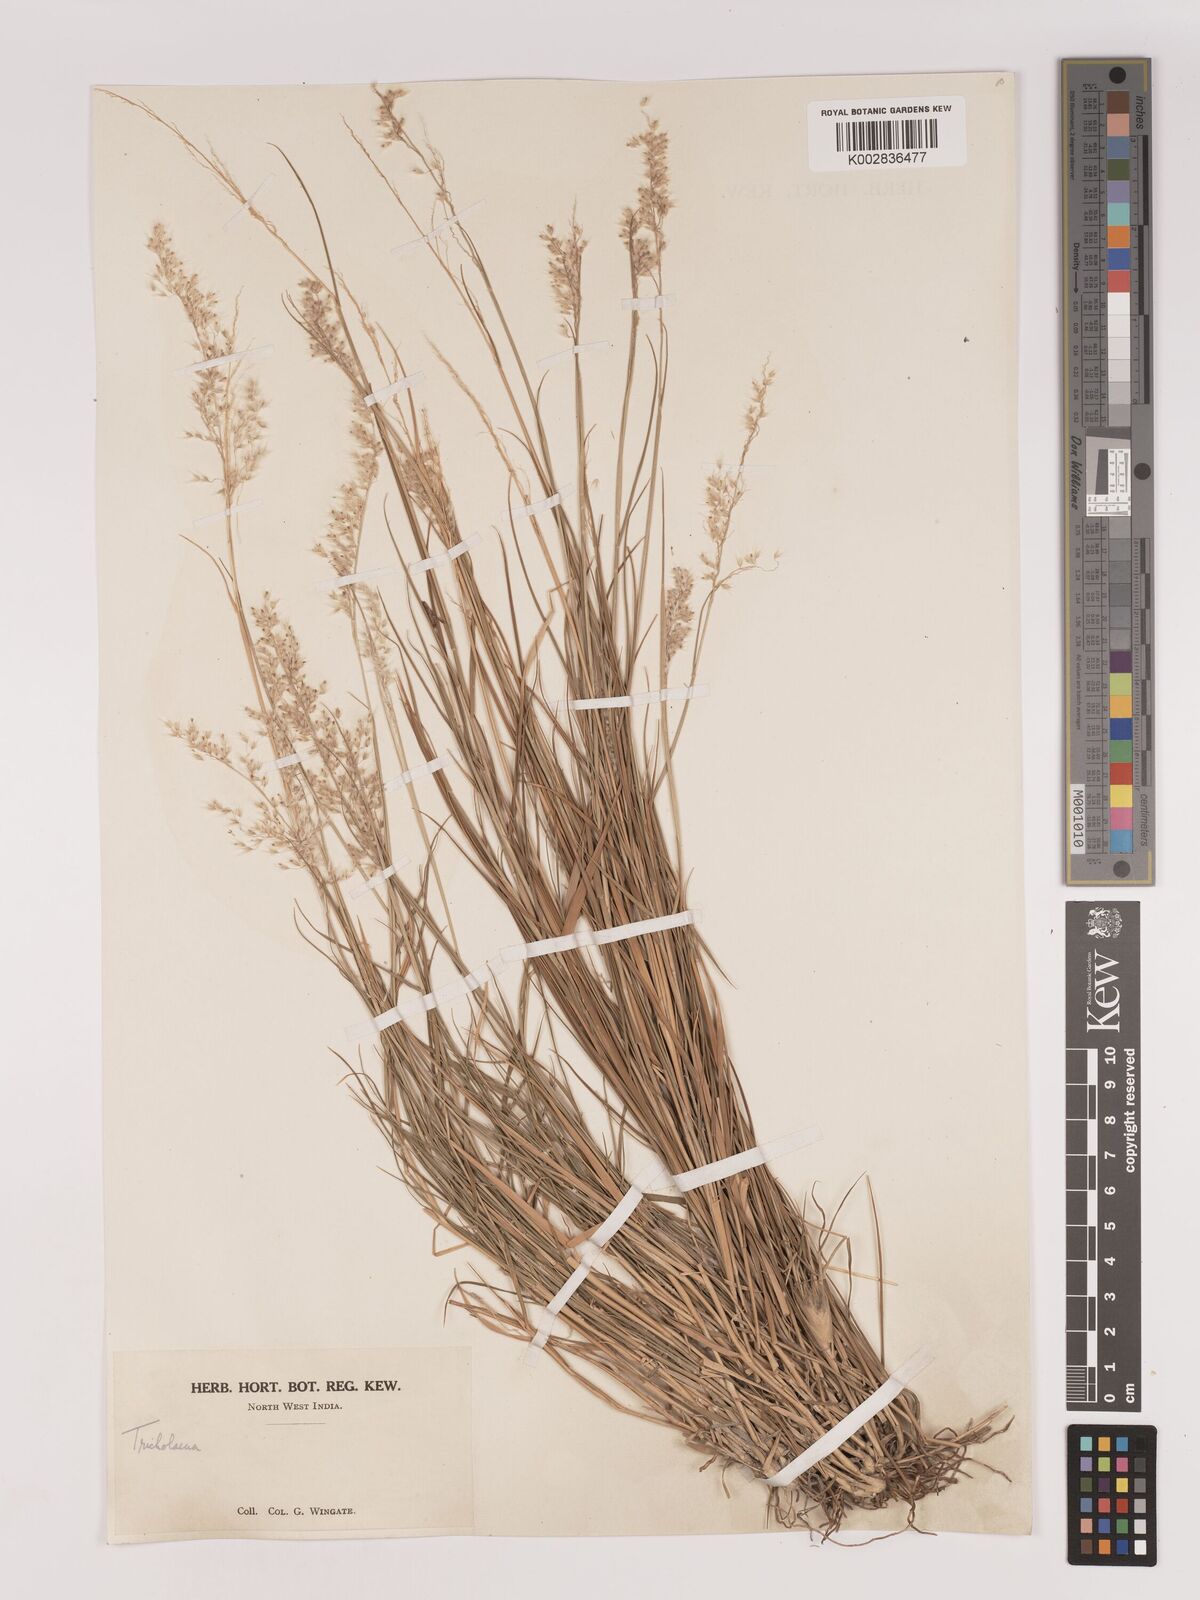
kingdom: Plantae
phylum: Tracheophyta
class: Liliopsida
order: Poales
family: Poaceae
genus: Tricholaena
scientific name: Tricholaena teneriffae
